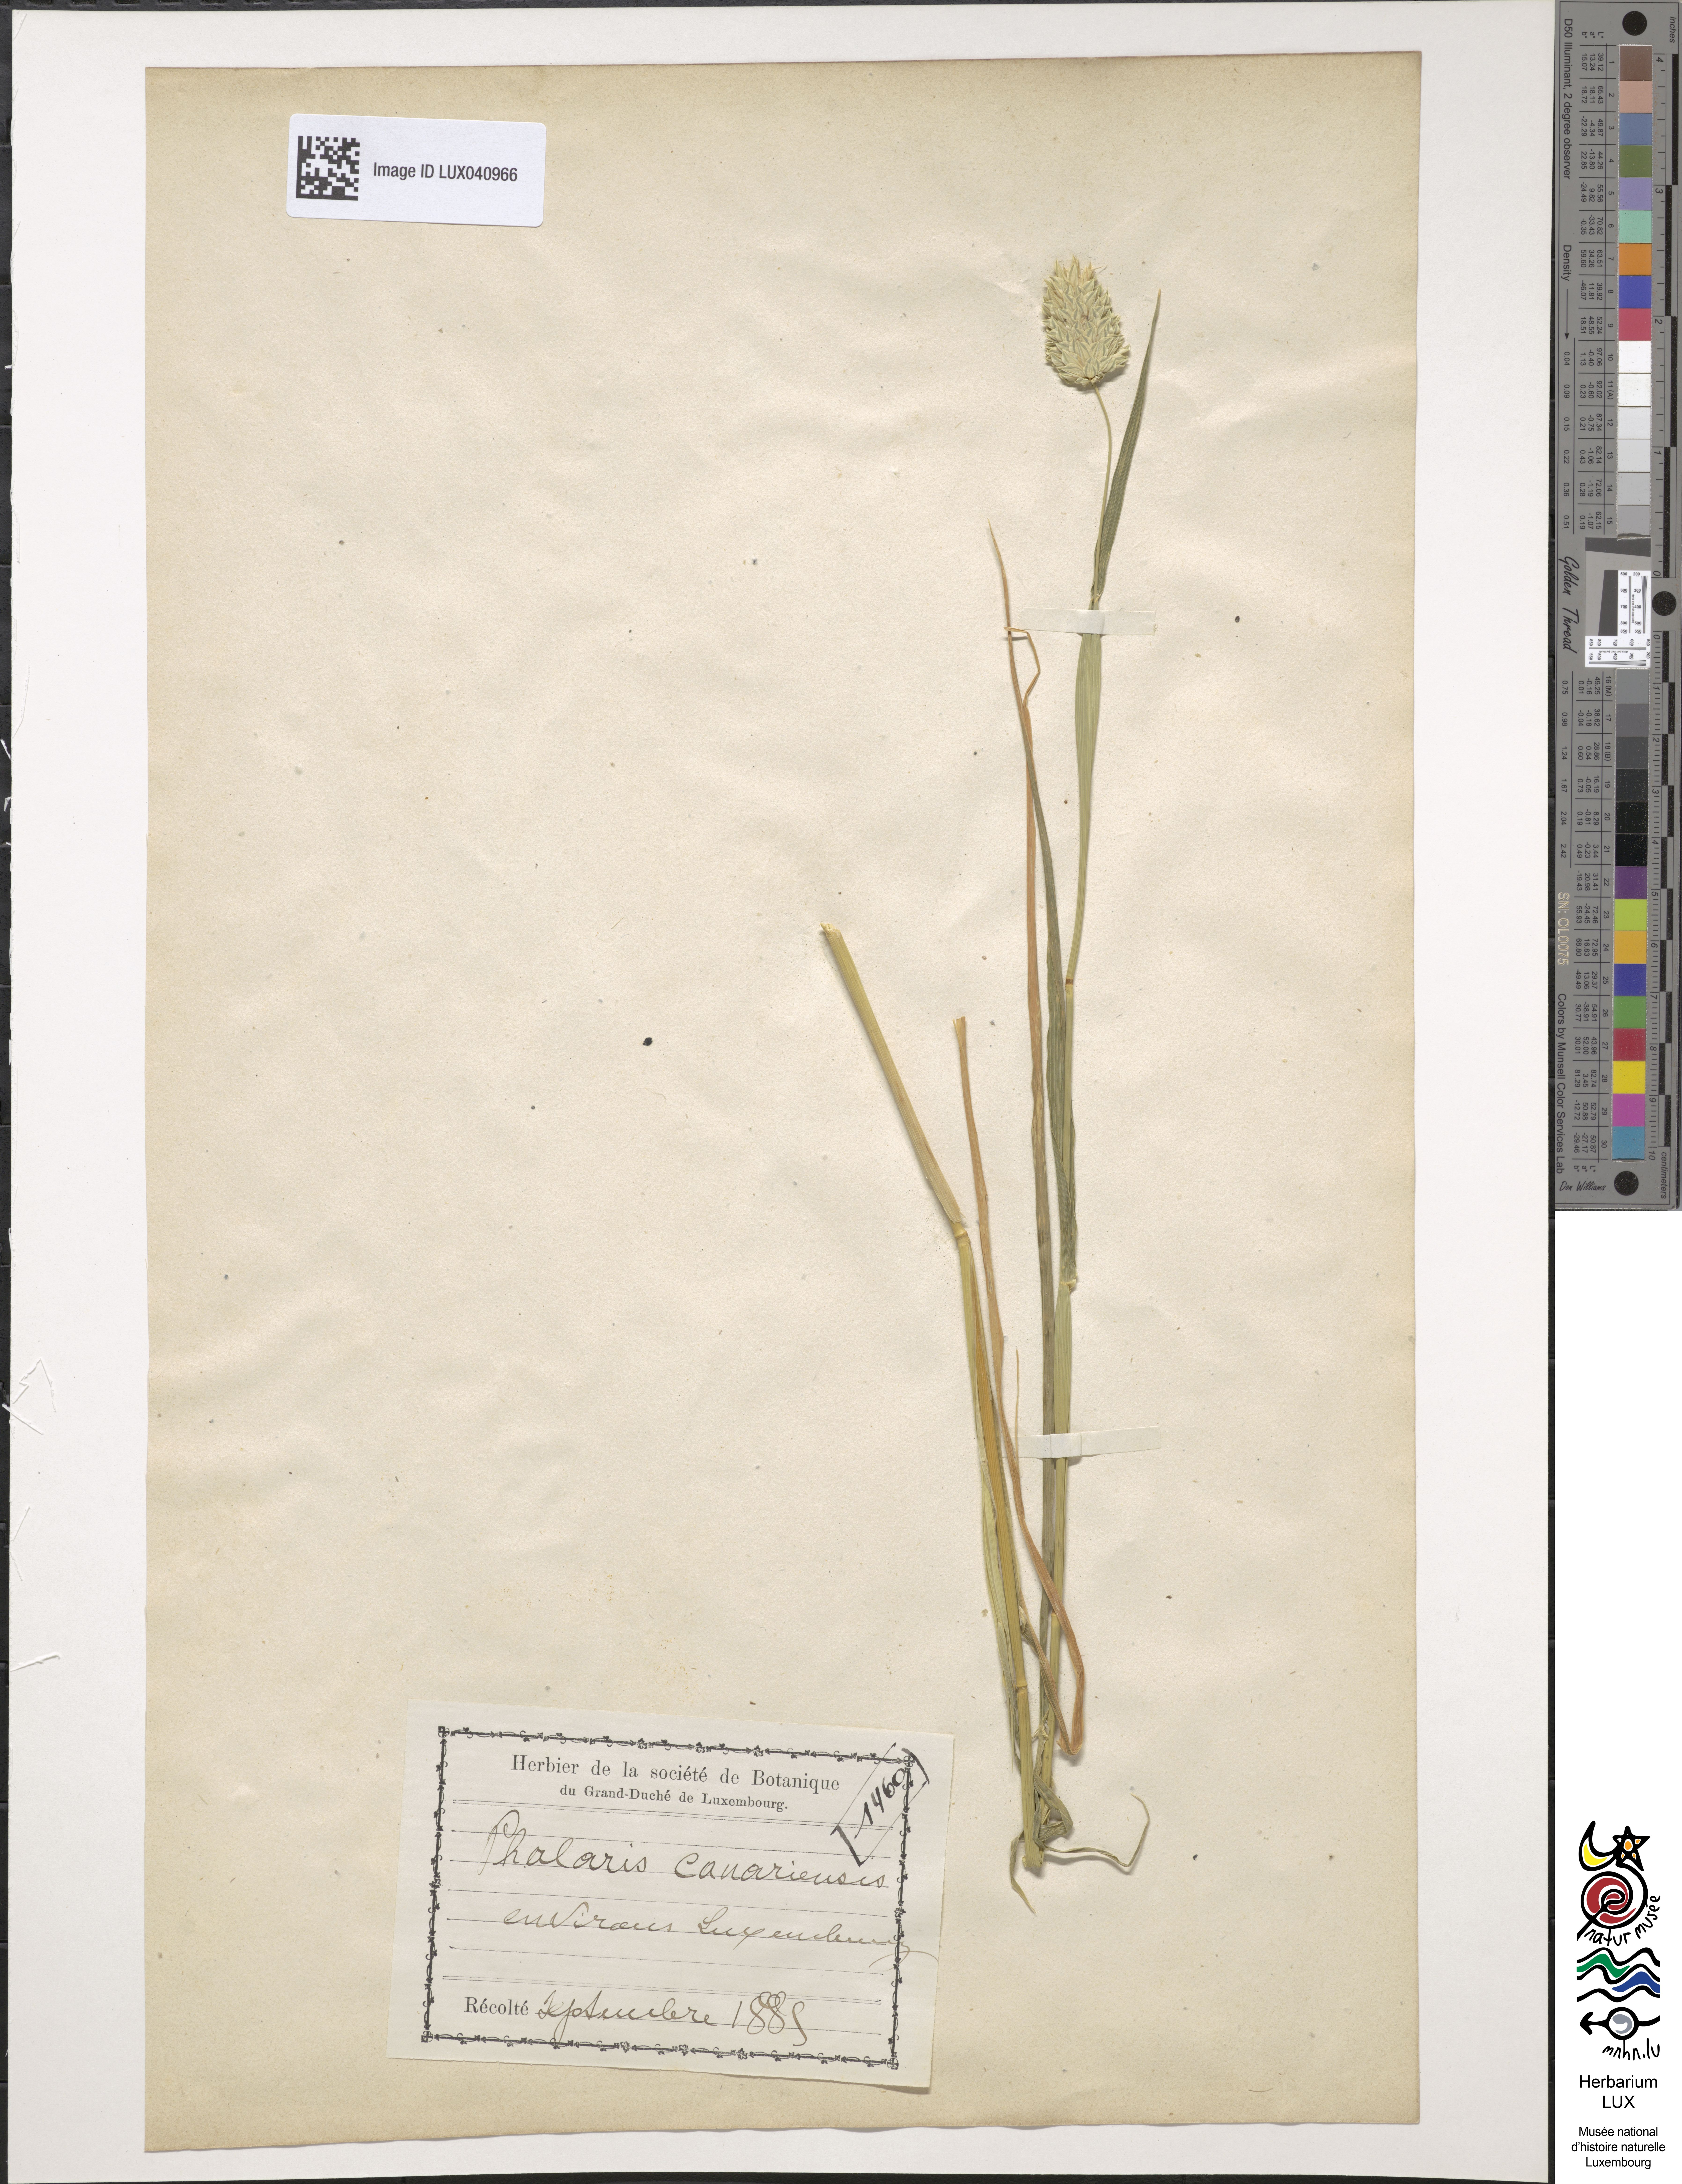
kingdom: Plantae
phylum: Tracheophyta
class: Liliopsida
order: Poales
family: Poaceae
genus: Phalaris
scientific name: Phalaris canariensis
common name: Annual canarygrass
